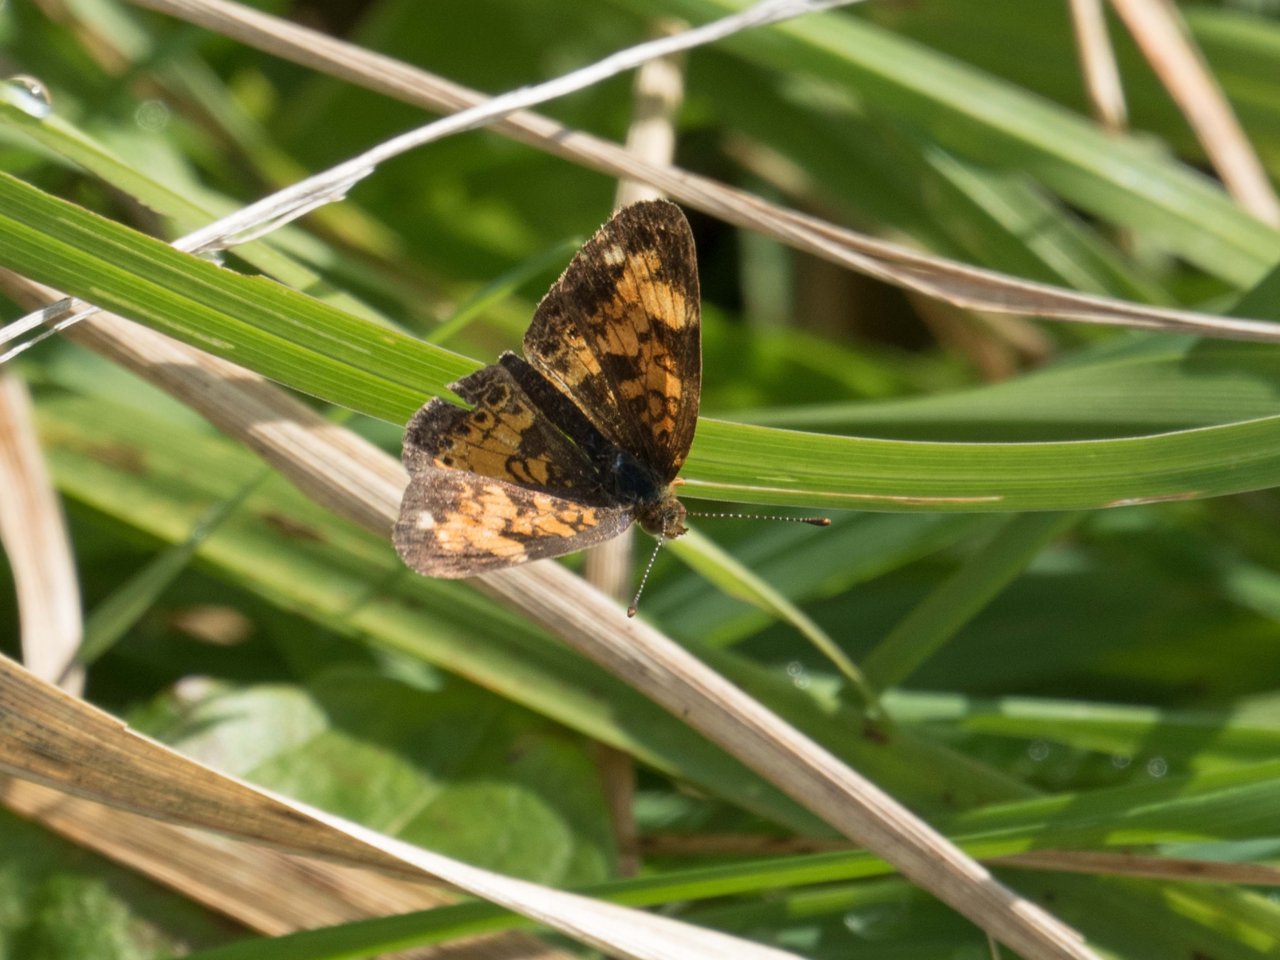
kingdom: Animalia
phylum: Arthropoda
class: Insecta
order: Lepidoptera
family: Nymphalidae
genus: Phyciodes
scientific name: Phyciodes
